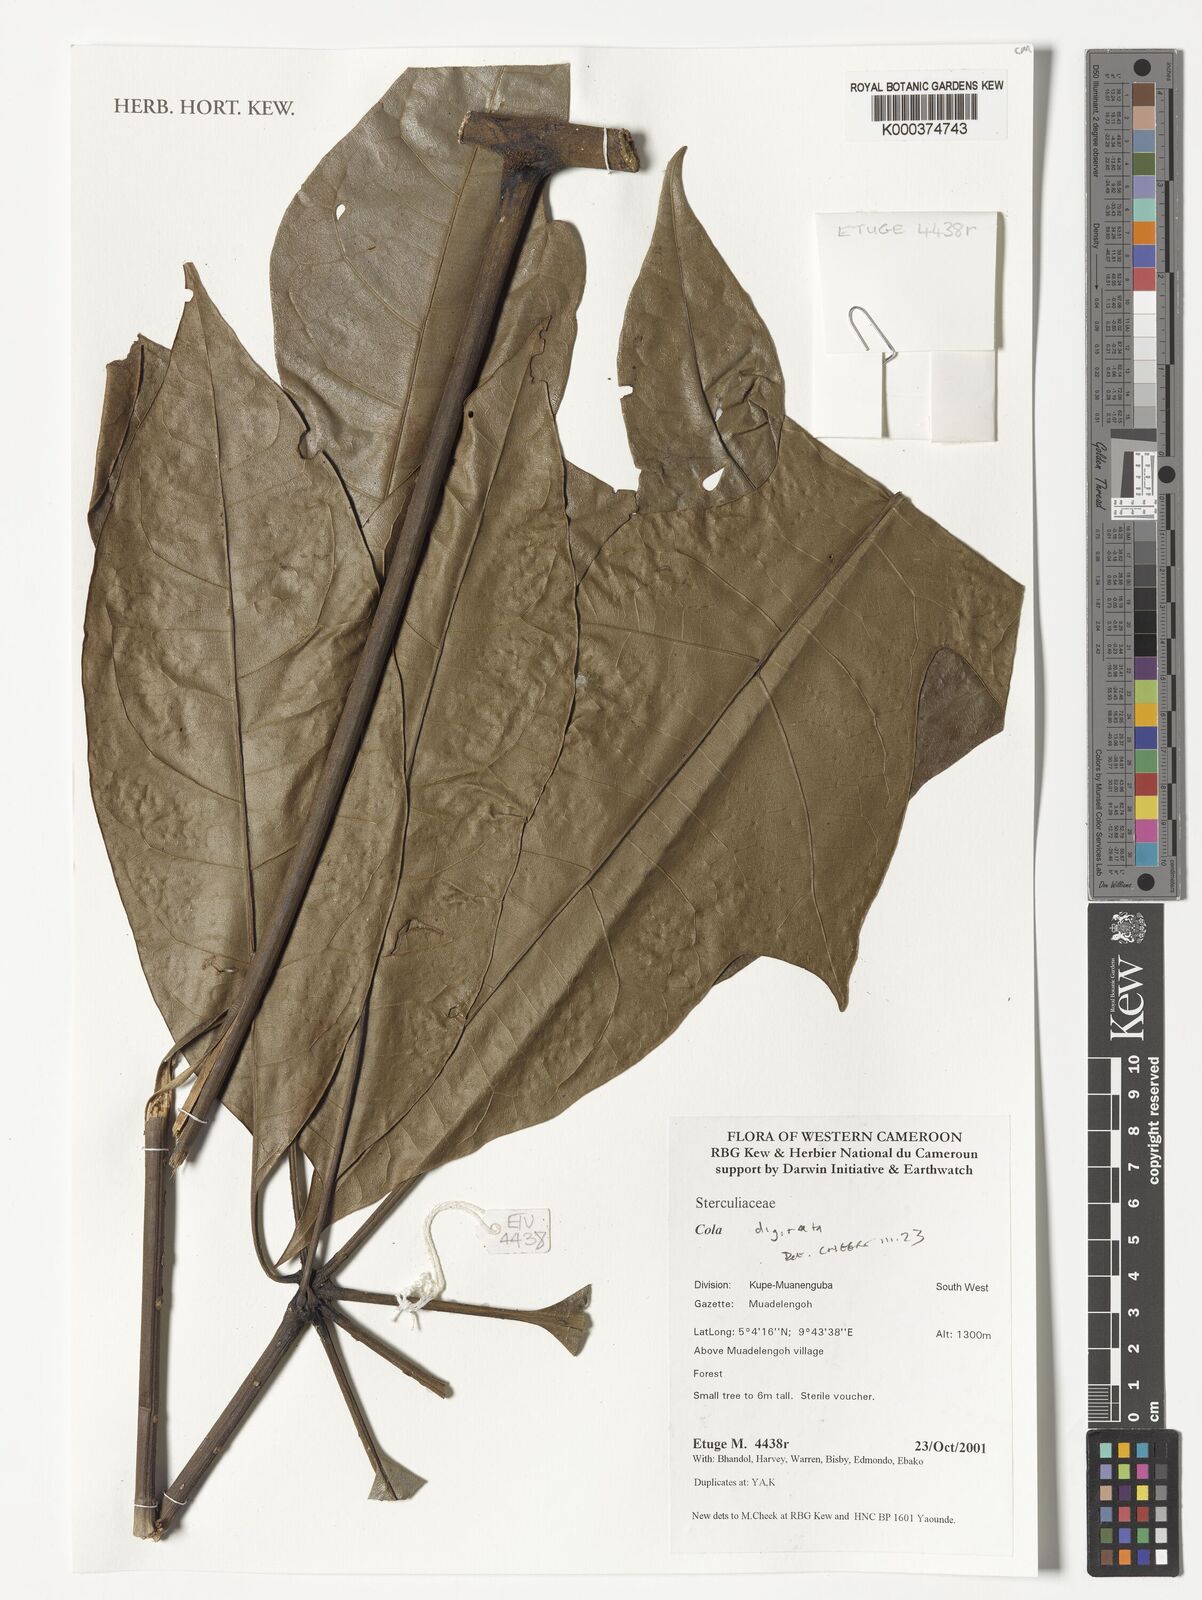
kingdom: Plantae
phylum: Tracheophyta
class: Magnoliopsida
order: Malvales
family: Malvaceae
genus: Cola
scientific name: Cola digitata
